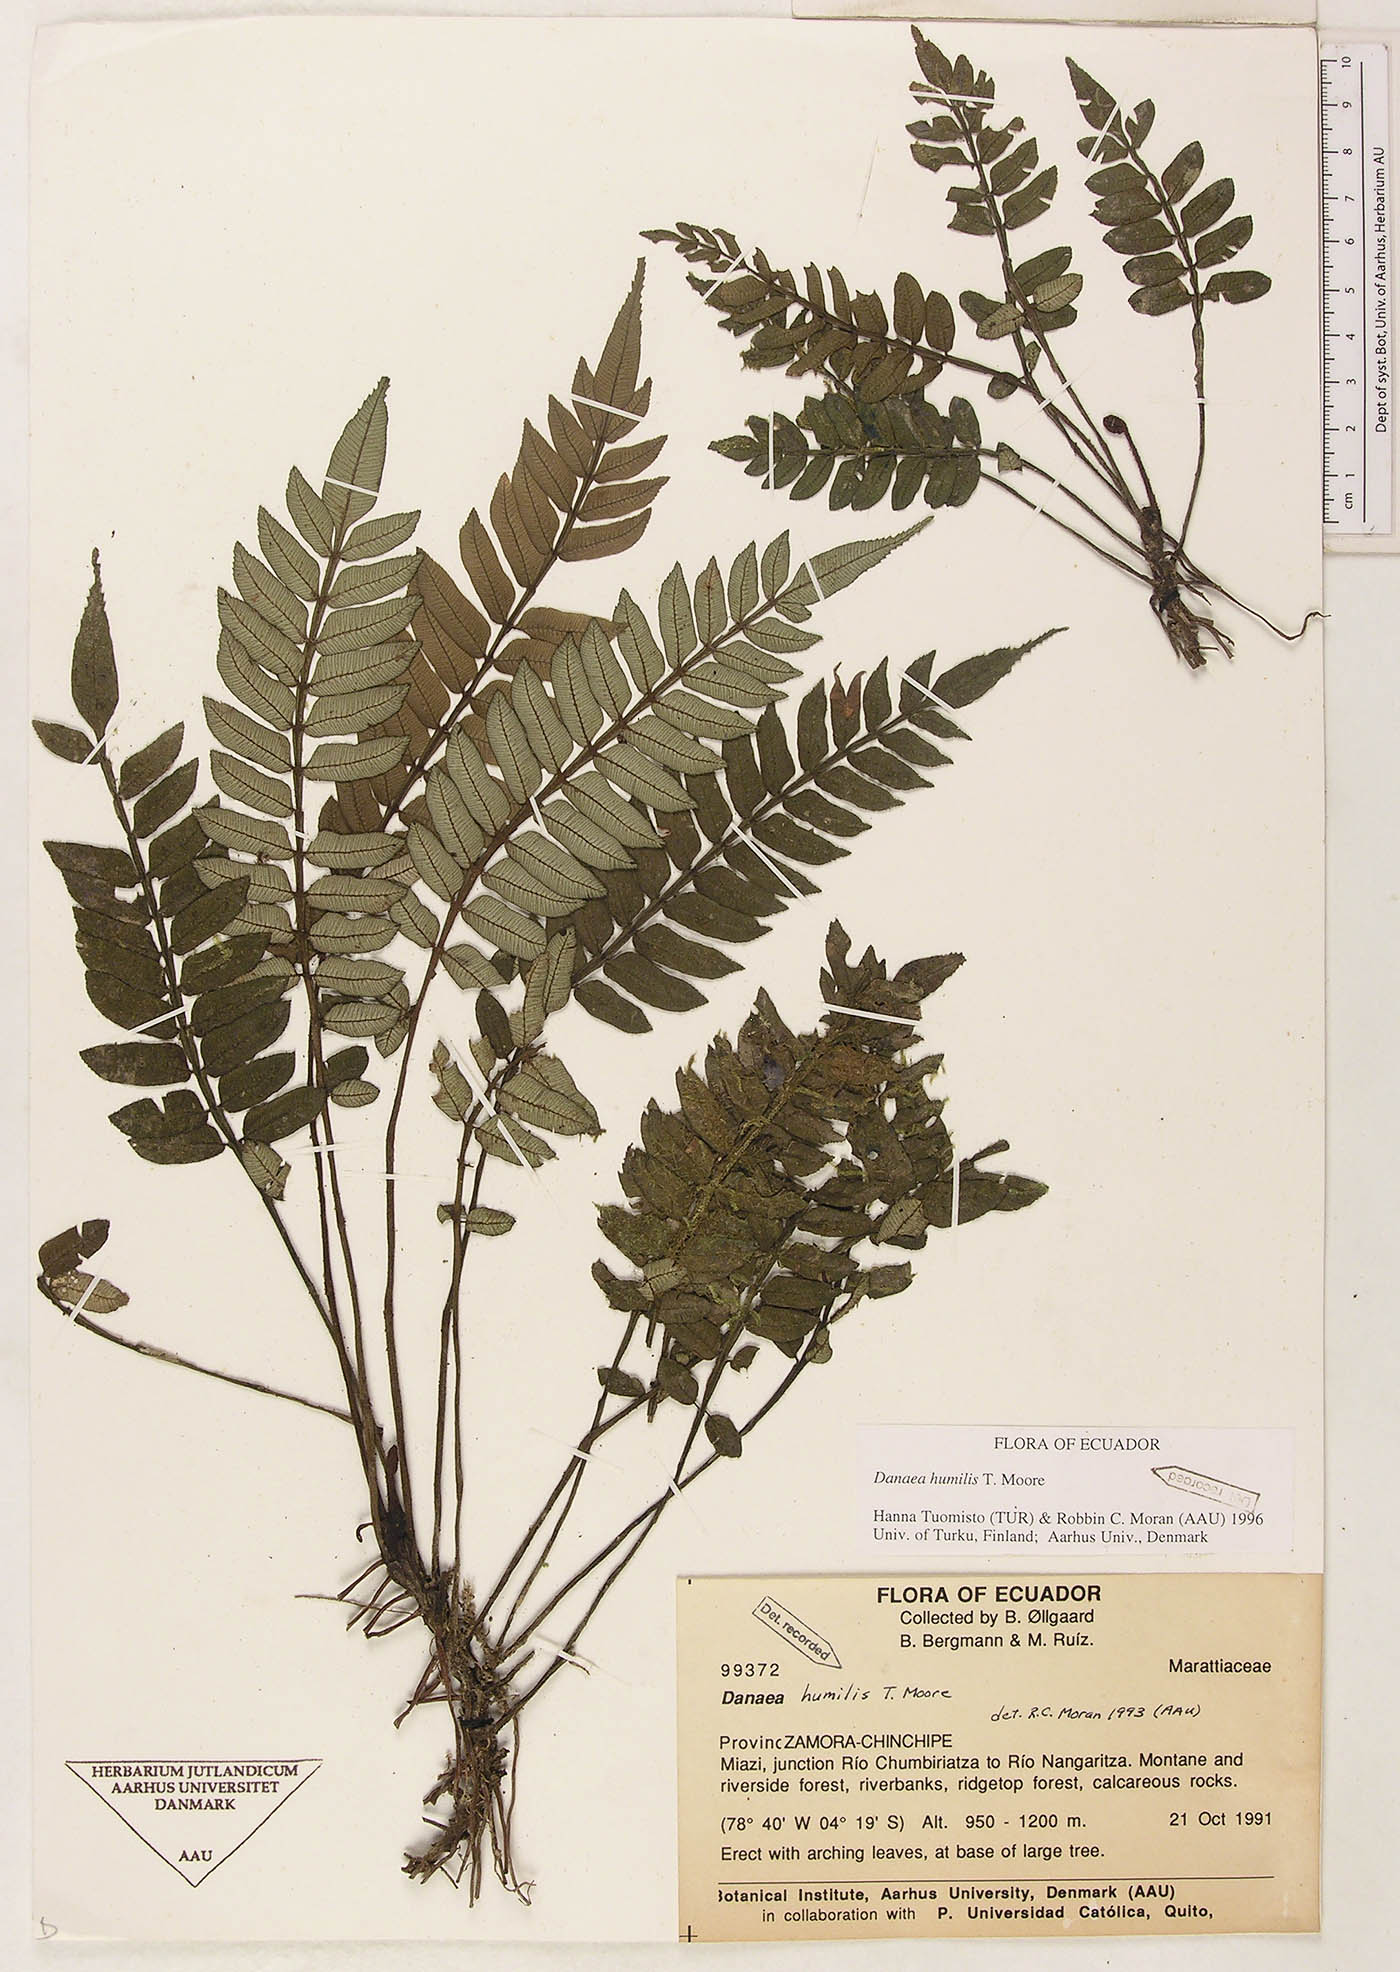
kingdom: Plantae
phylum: Tracheophyta
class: Polypodiopsida
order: Marattiales
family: Marattiaceae
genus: Danaea
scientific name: Danaea humilis
